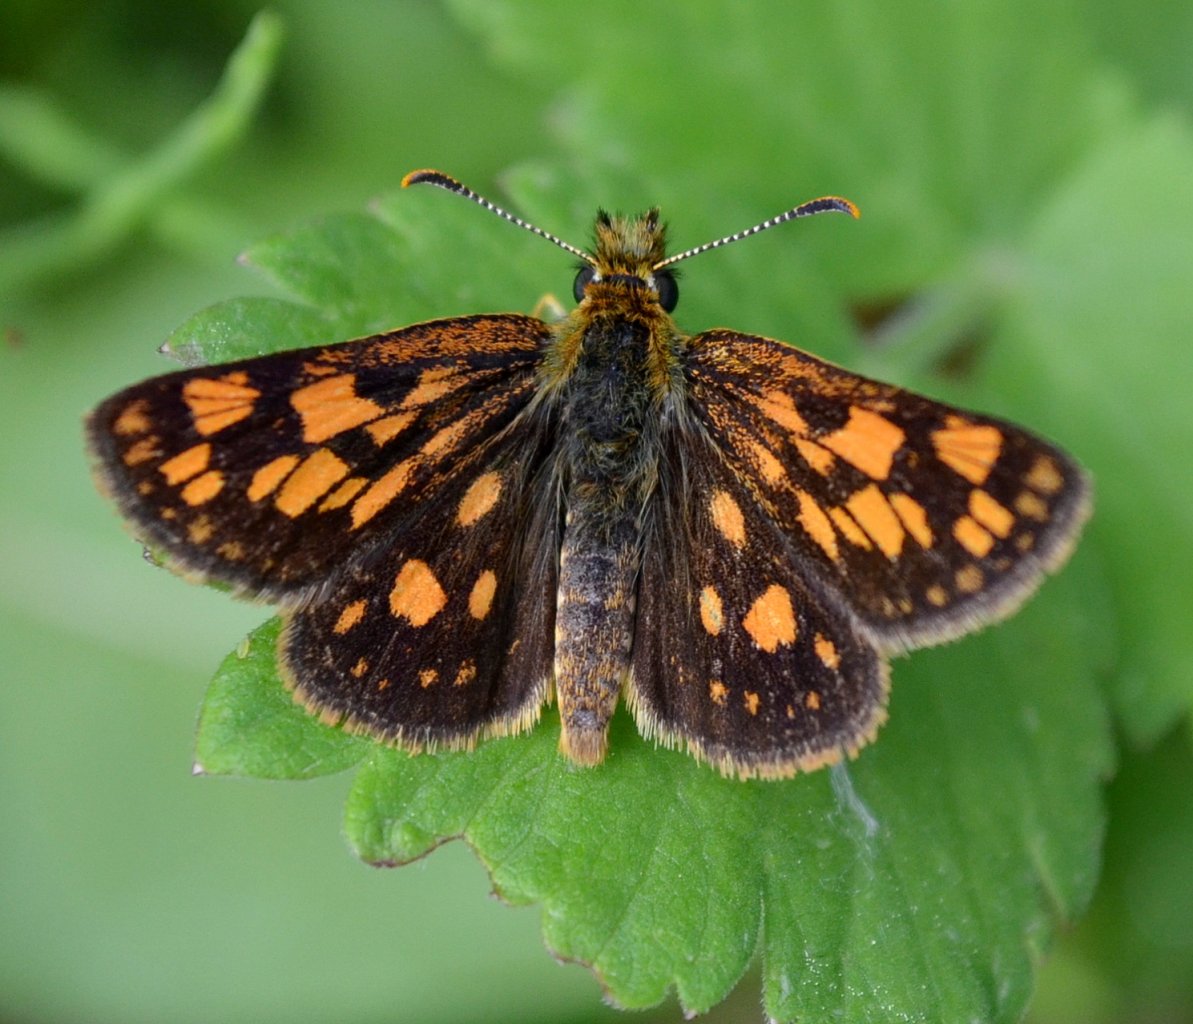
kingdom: Animalia
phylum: Arthropoda
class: Insecta
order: Lepidoptera
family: Hesperiidae
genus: Carterocephalus
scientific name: Carterocephalus palaemon
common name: Chequered Skipper
